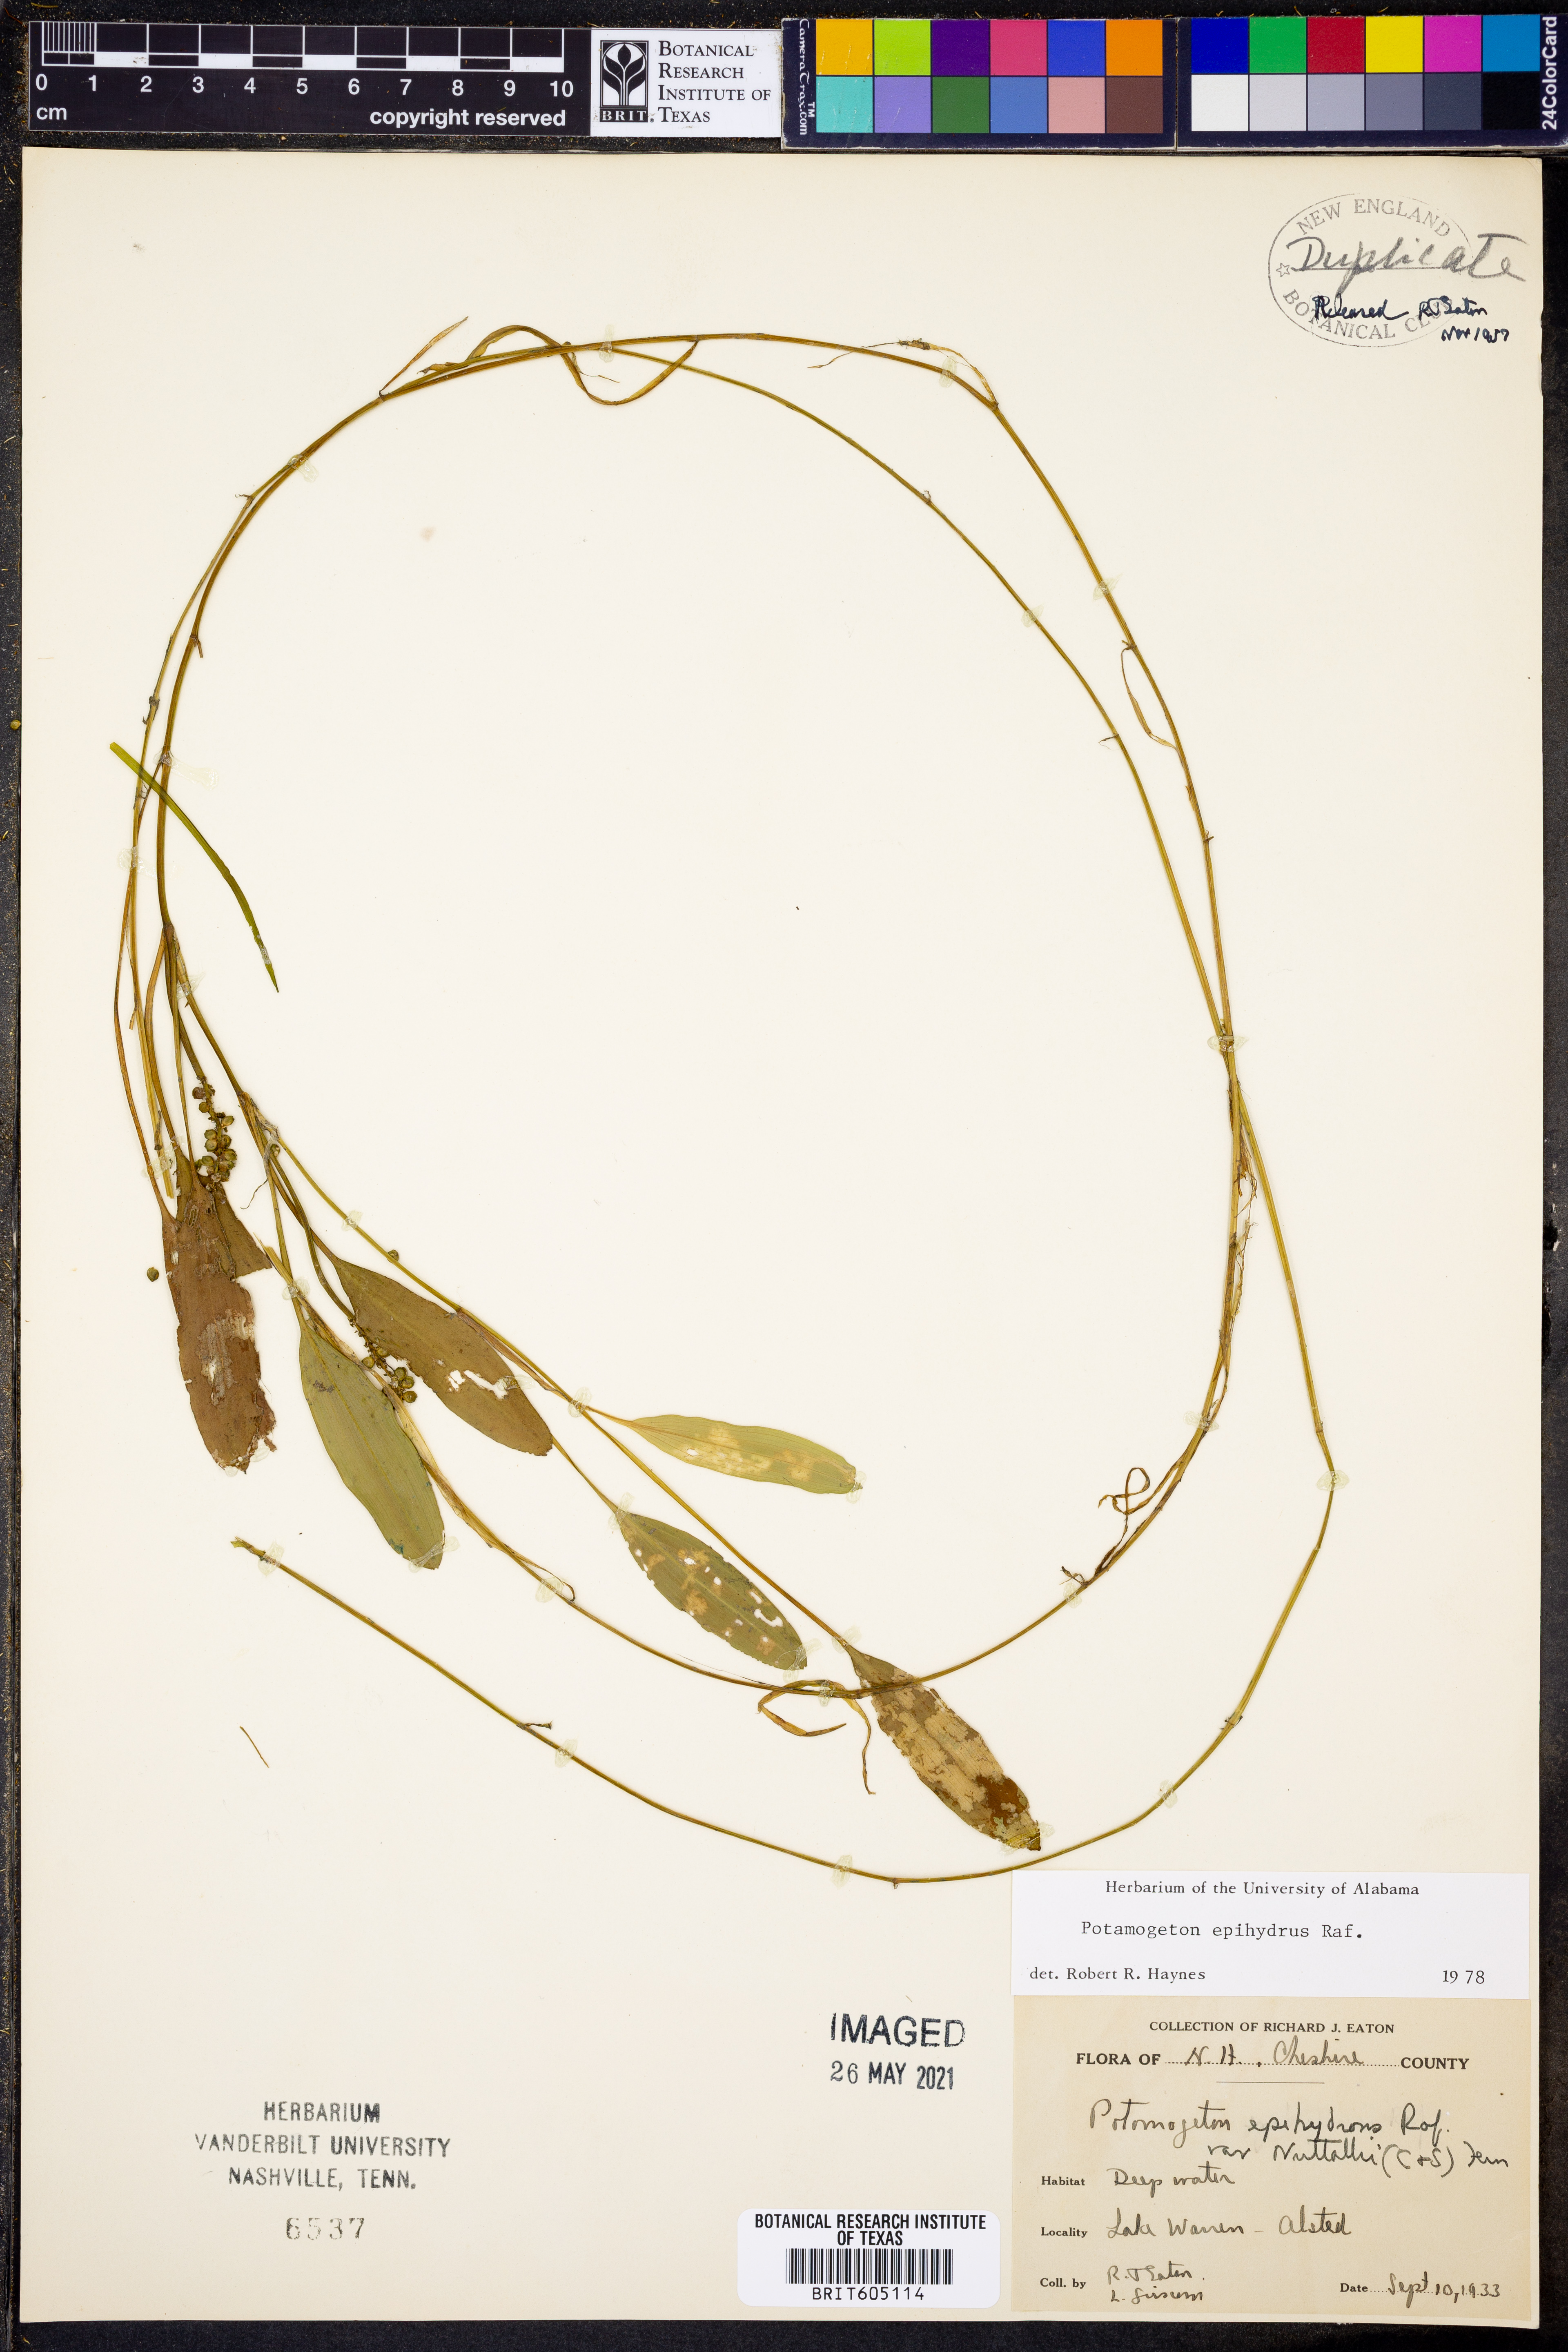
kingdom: Plantae
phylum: Tracheophyta
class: Liliopsida
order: Alismatales
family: Potamogetonaceae
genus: Potamogeton
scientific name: Potamogeton epihydrus
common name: American pondweed
